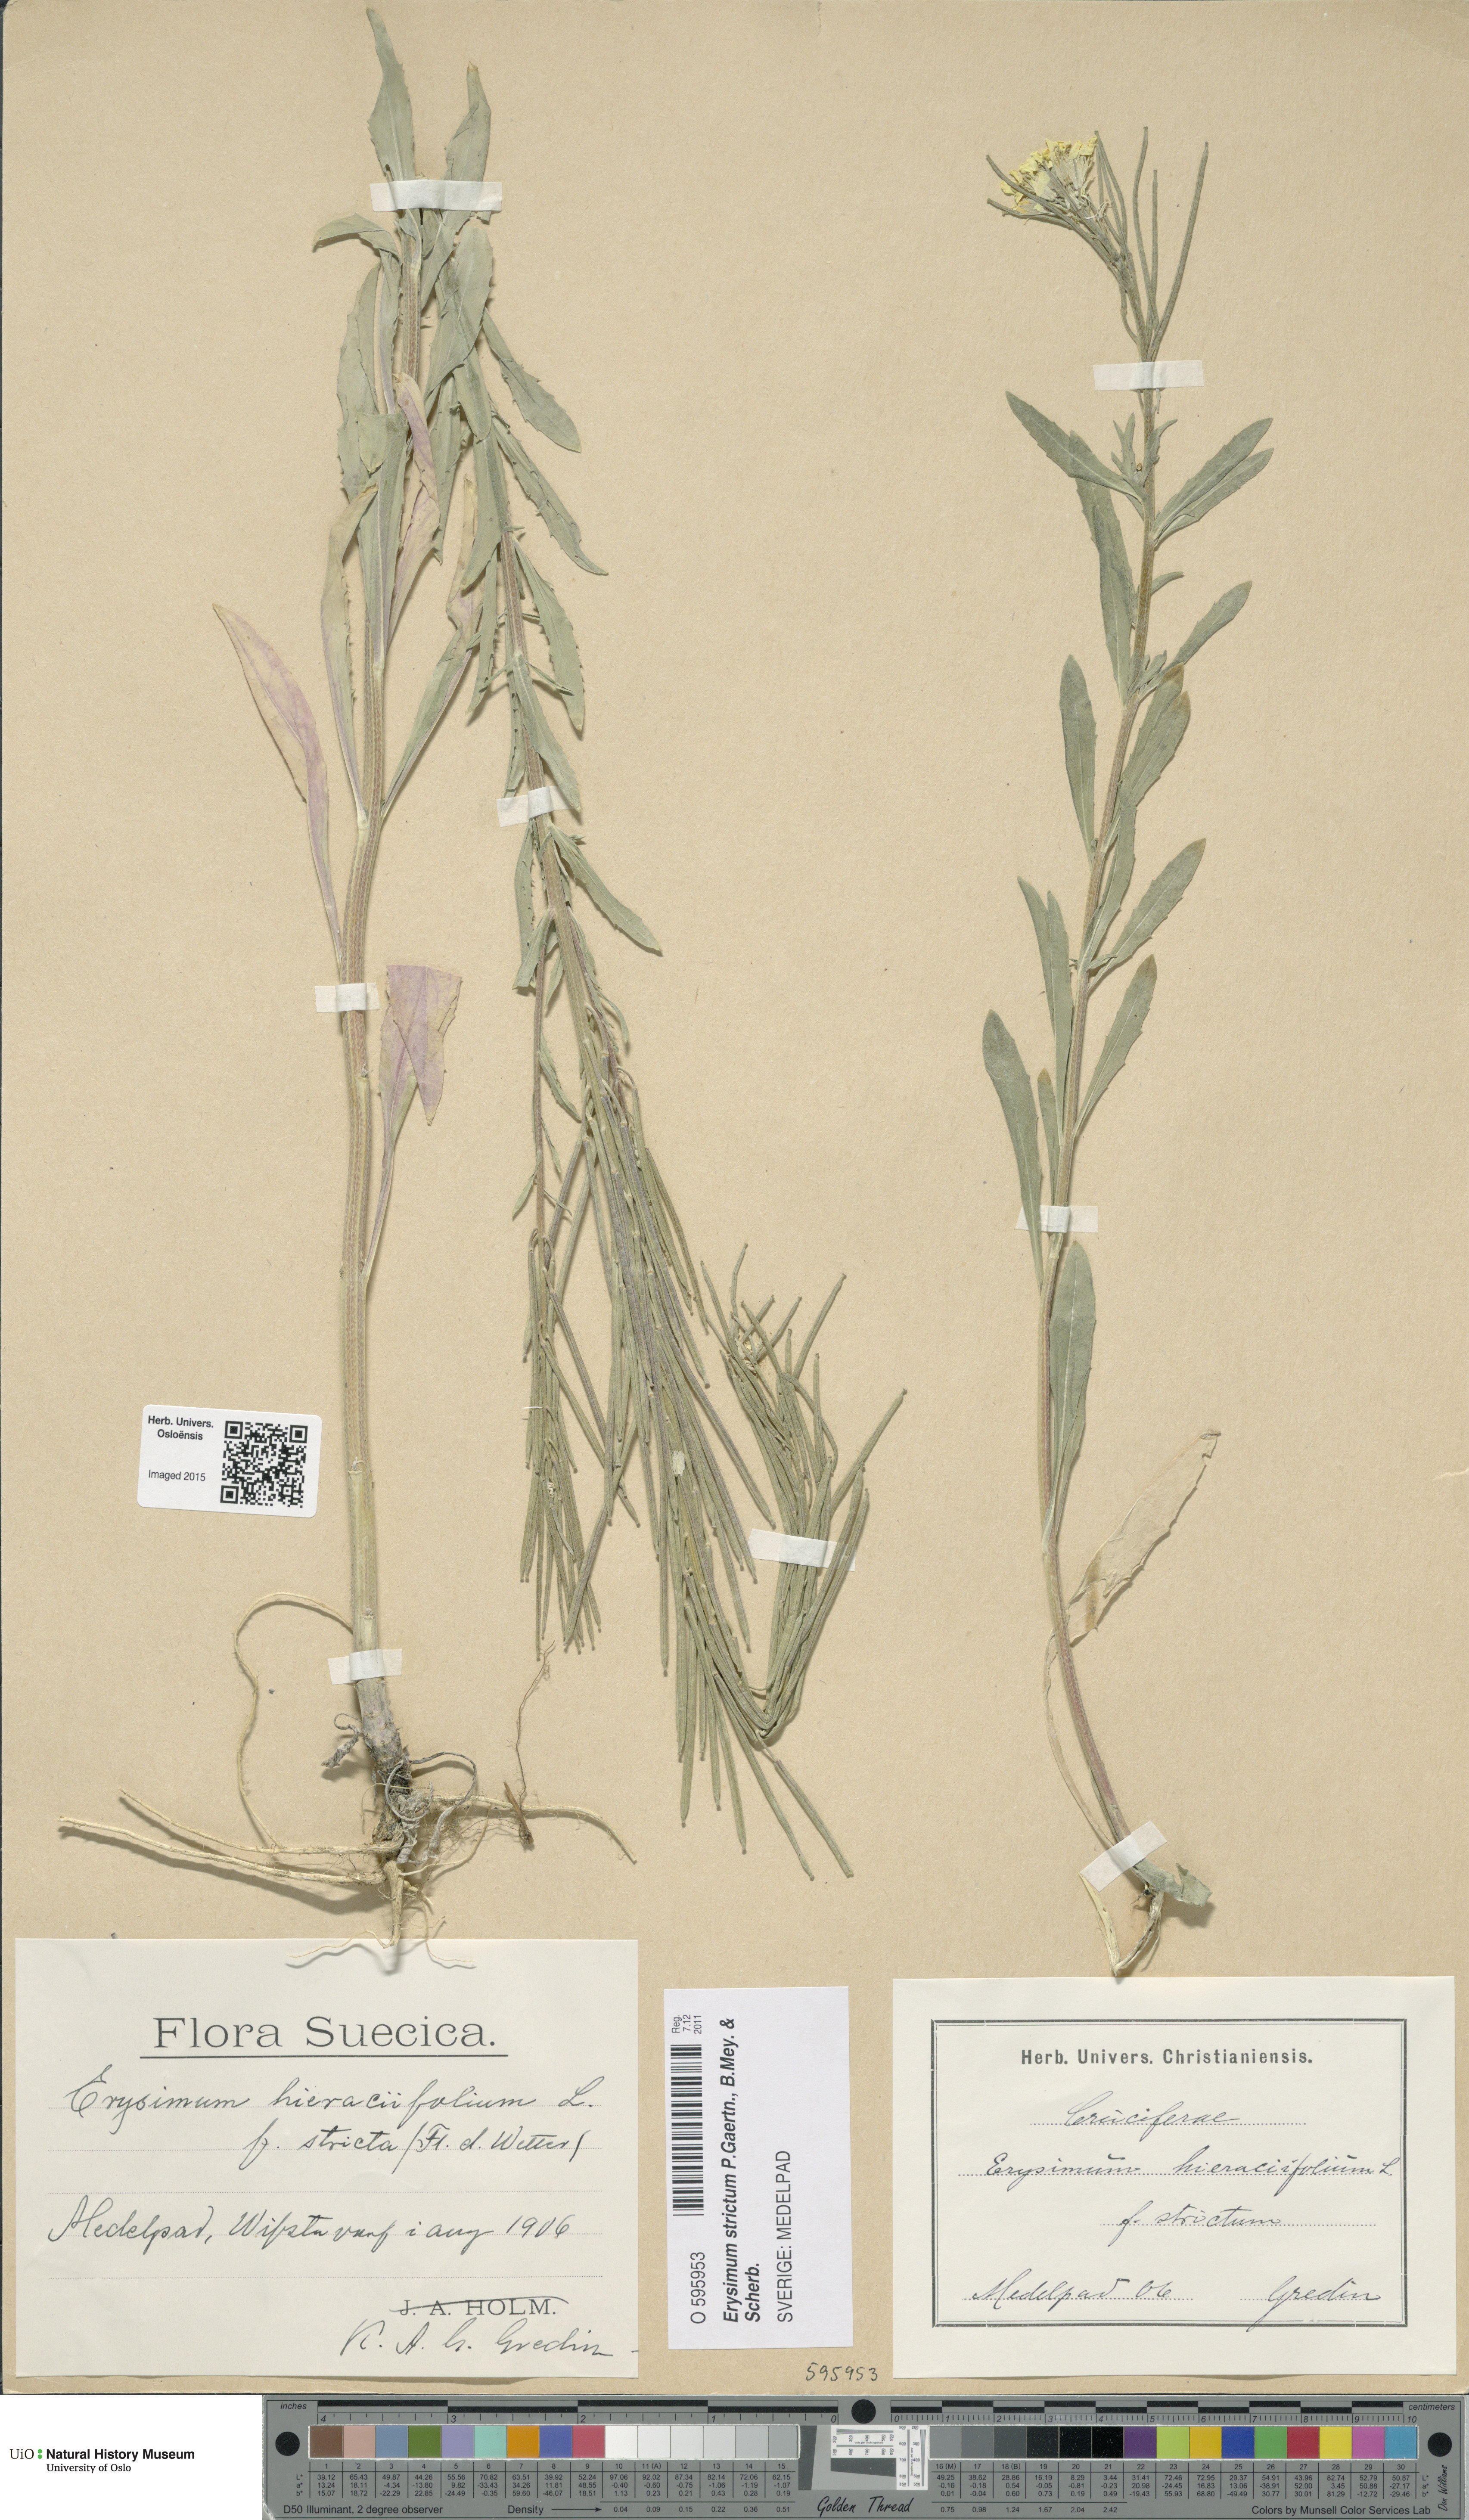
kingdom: Plantae
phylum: Tracheophyta
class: Magnoliopsida
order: Brassicales
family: Brassicaceae
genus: Erysimum
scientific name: Erysimum hieraciifolium
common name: European wallflower
